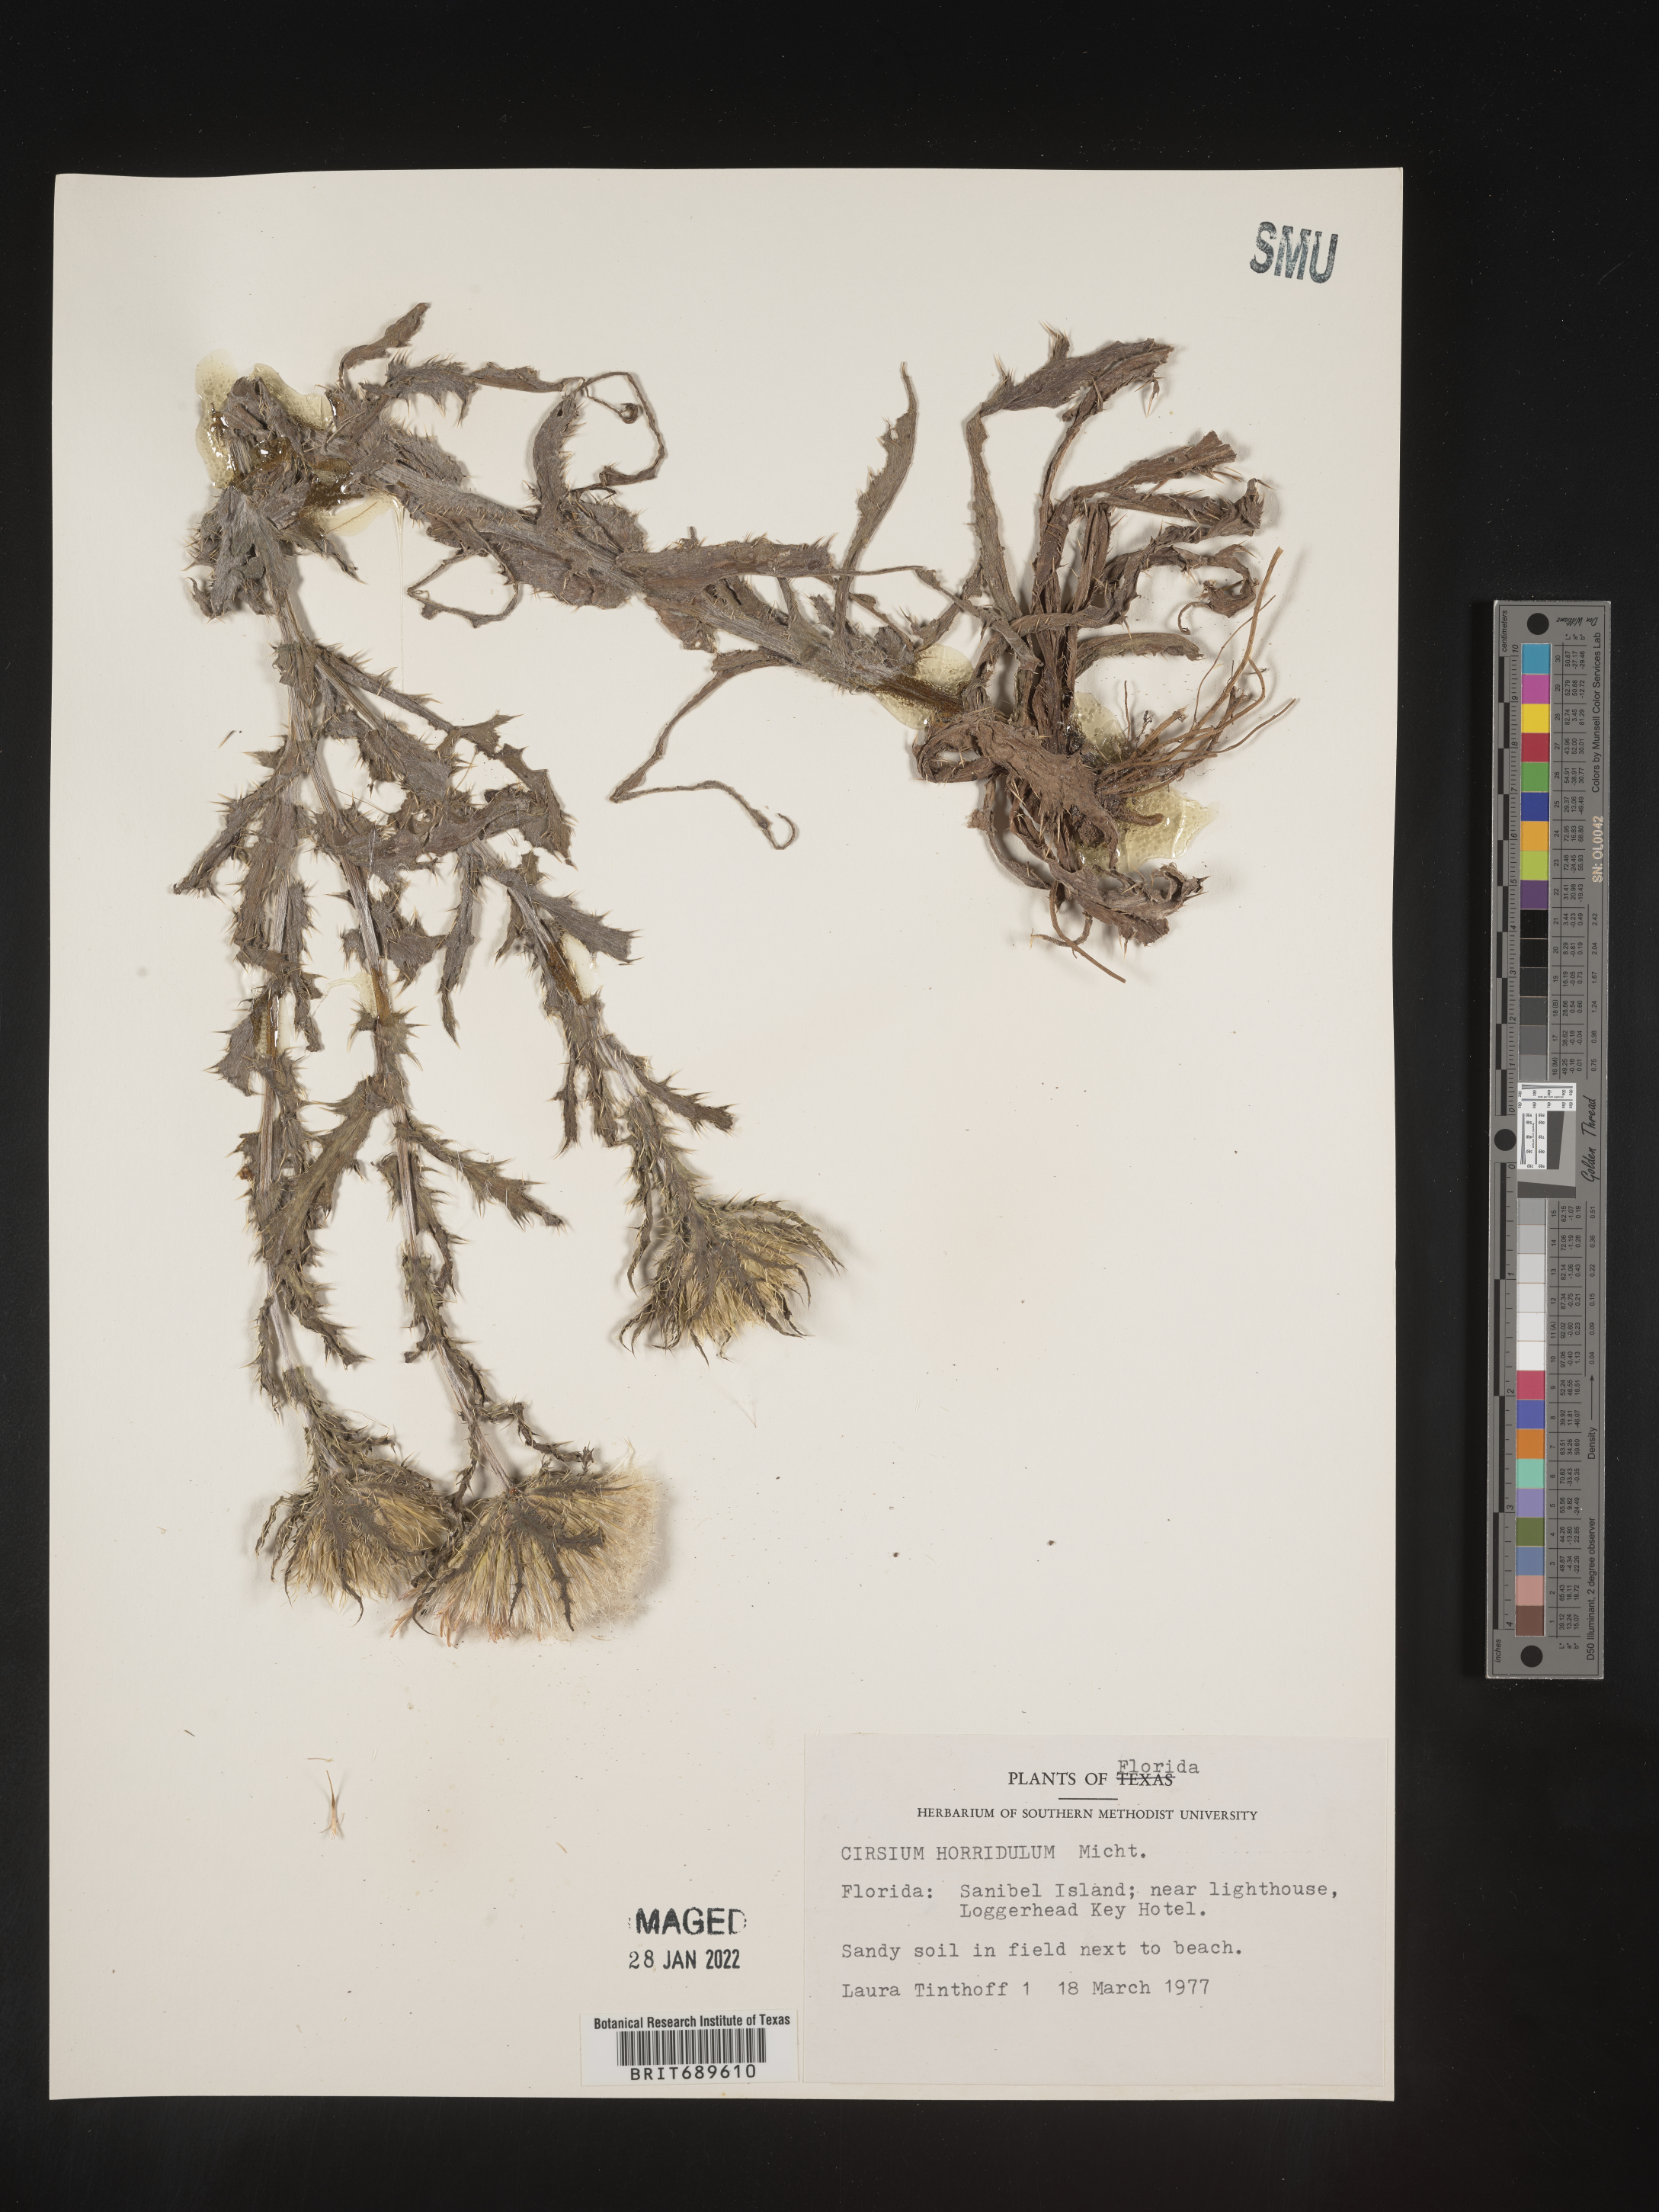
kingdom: Plantae
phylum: Tracheophyta
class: Magnoliopsida
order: Asterales
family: Asteraceae
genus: Cirsium
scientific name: Cirsium horridulum
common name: Bristly thistle
